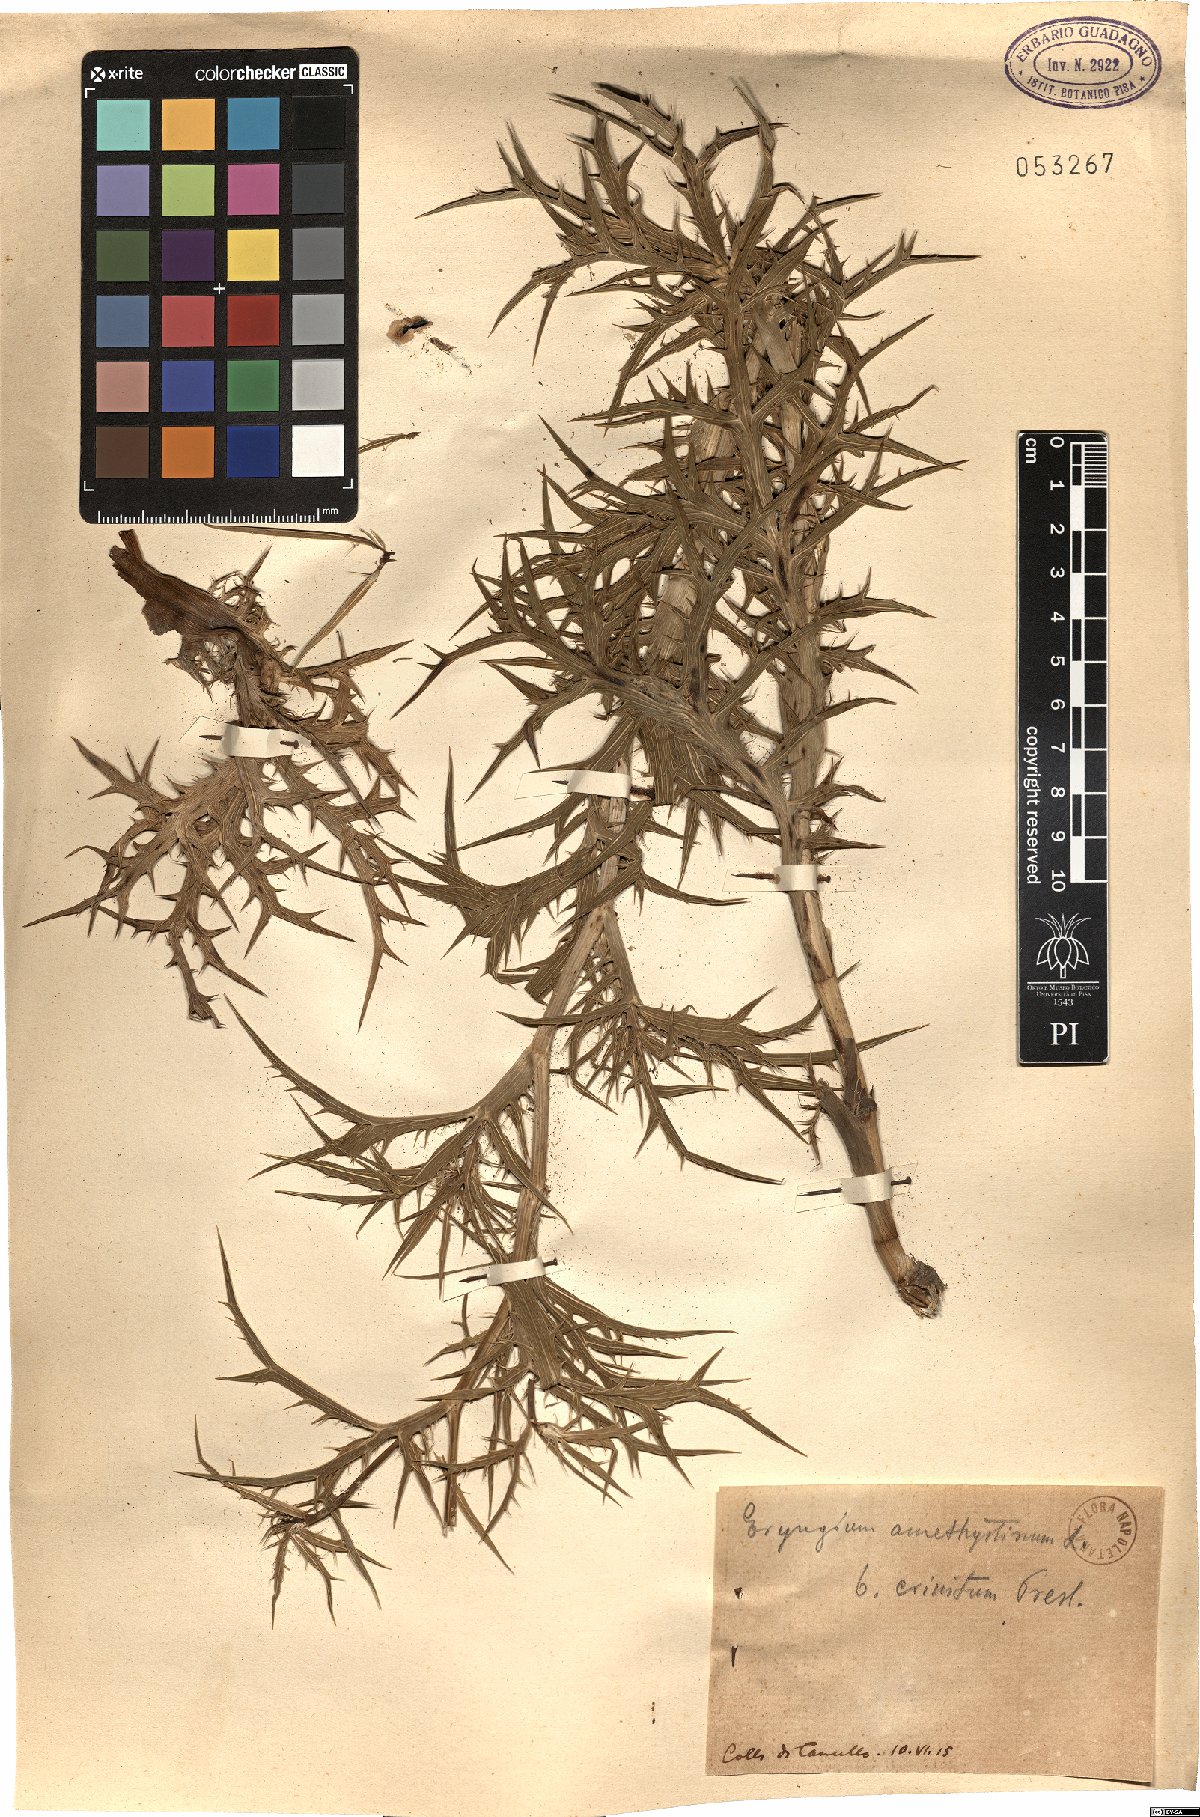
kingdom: Plantae
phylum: Tracheophyta
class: Magnoliopsida
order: Apiales
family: Apiaceae
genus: Eryngium
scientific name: Eryngium amethystinum
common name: Amethyst eryngo
